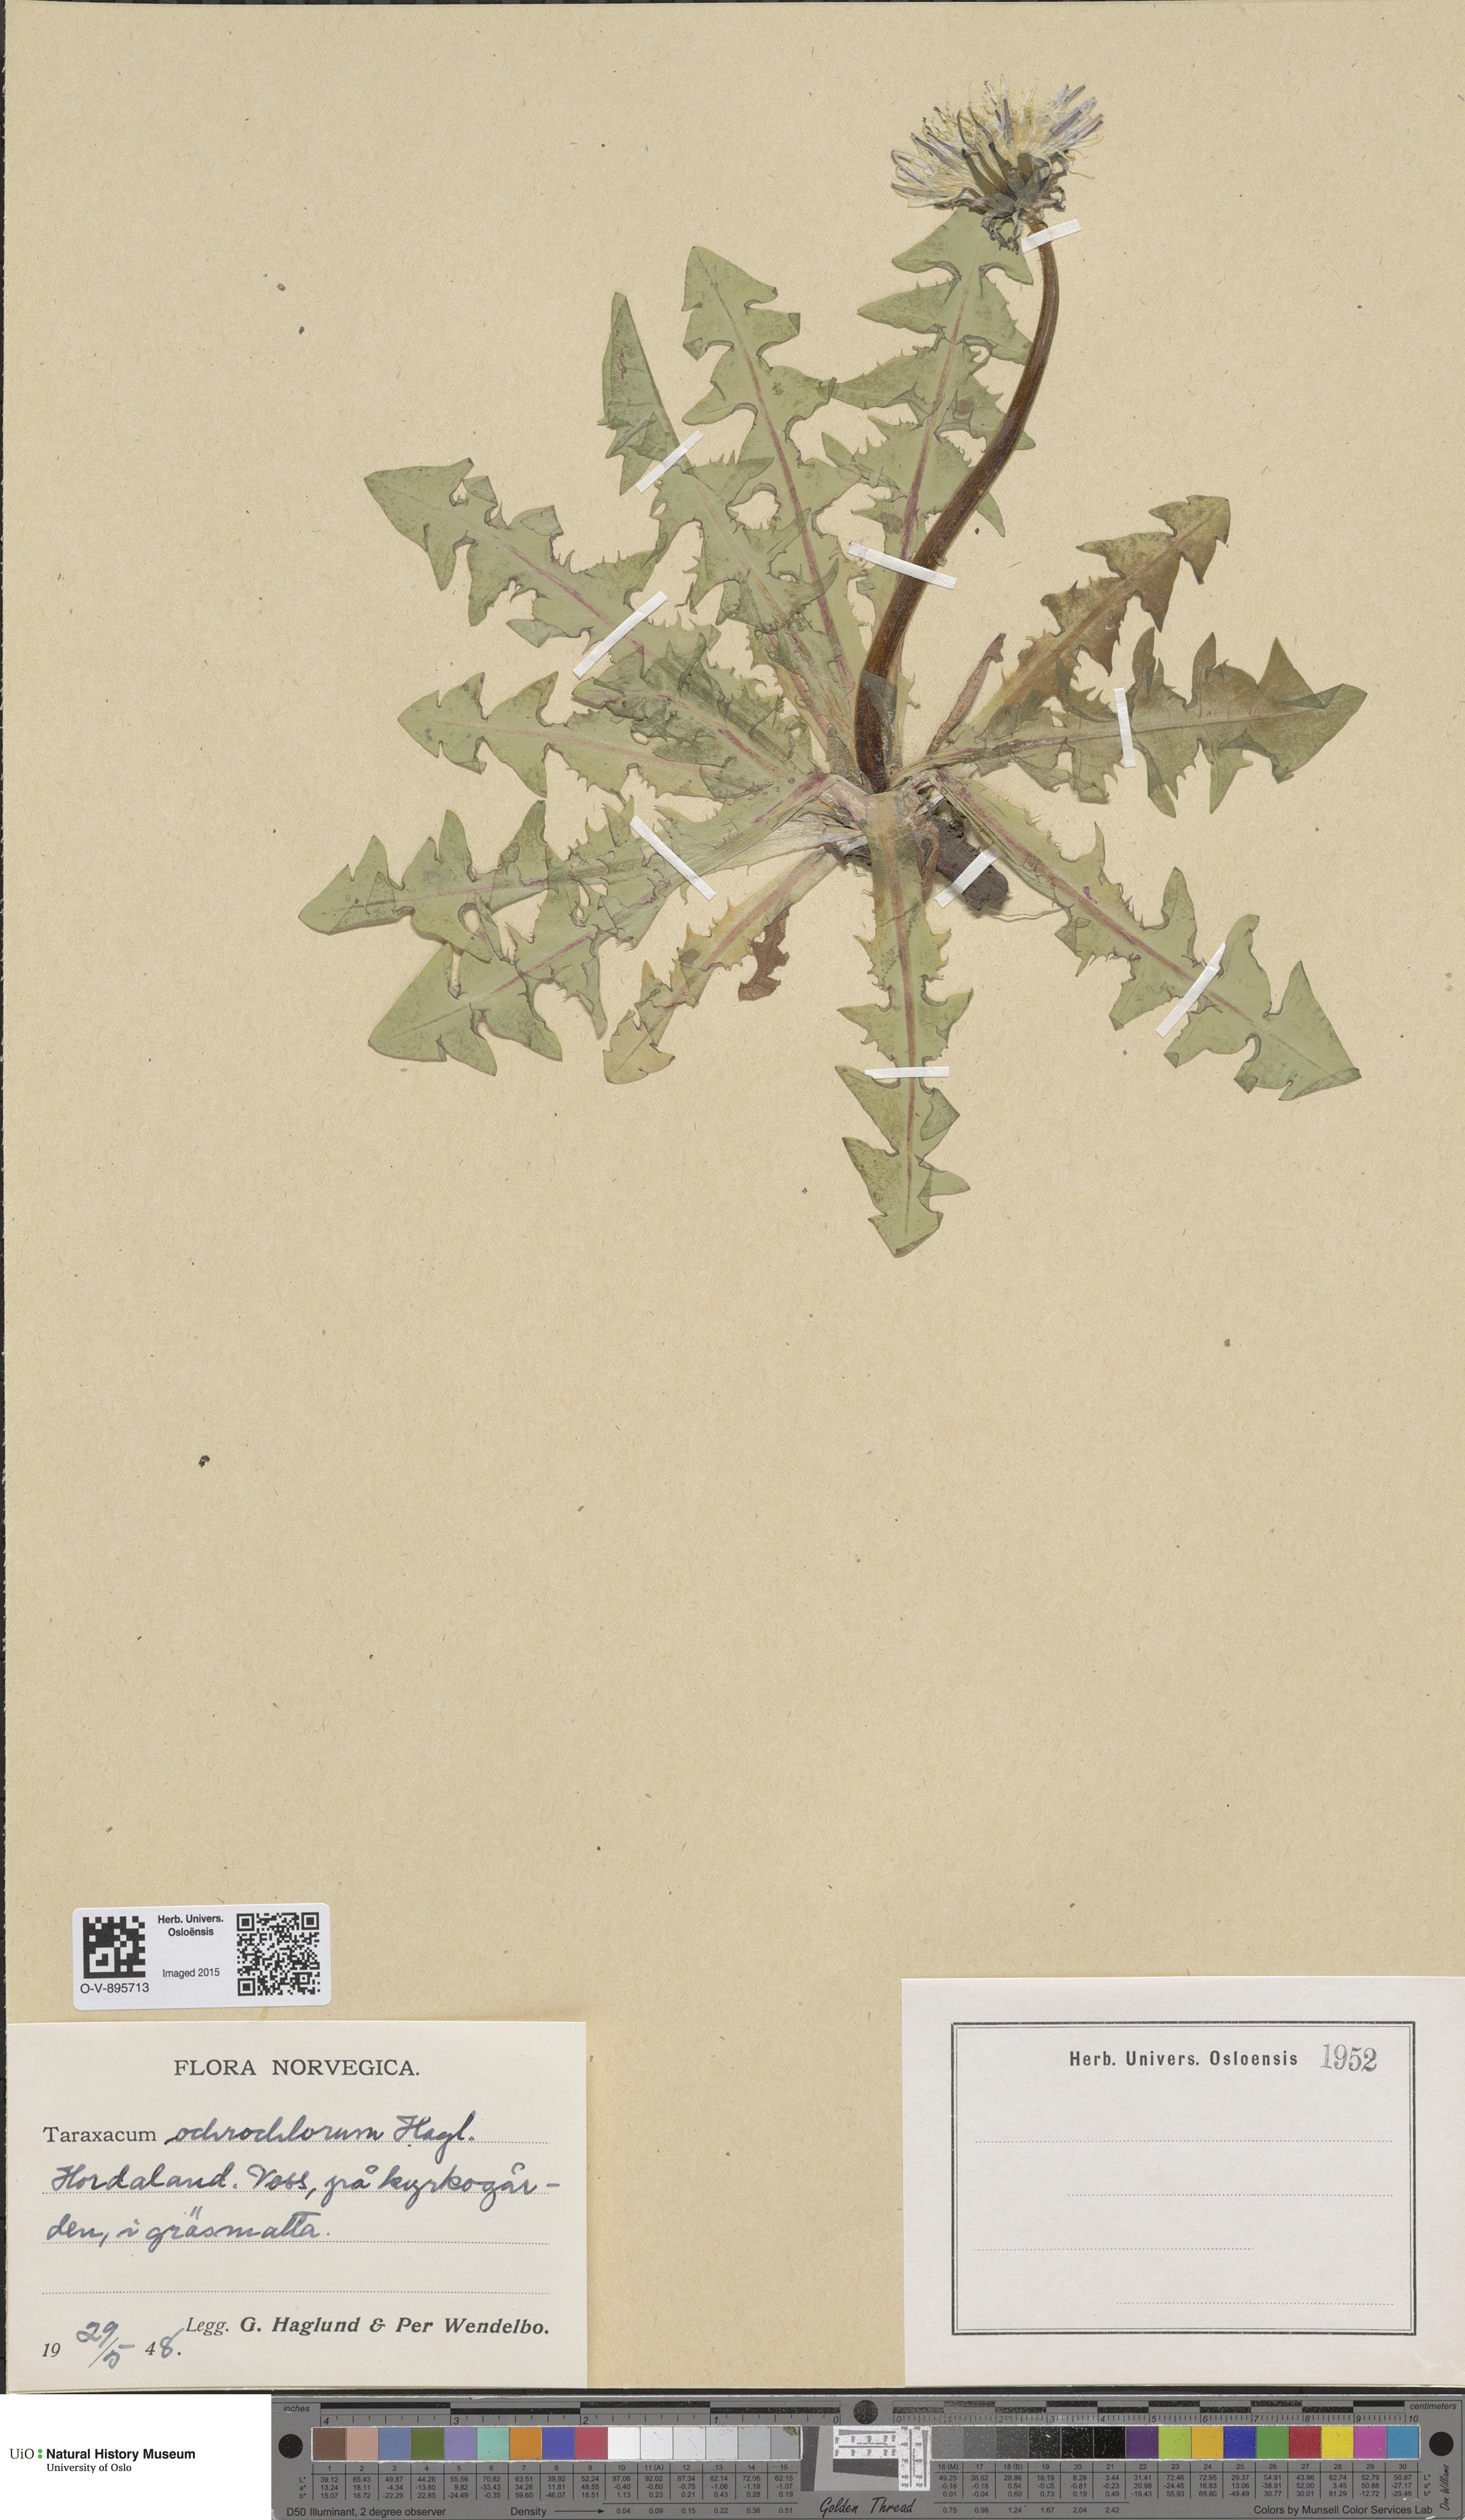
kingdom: Plantae
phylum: Tracheophyta
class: Magnoliopsida
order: Asterales
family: Asteraceae
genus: Taraxacum
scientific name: Taraxacum ochrochlorum
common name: Winged dandelion
